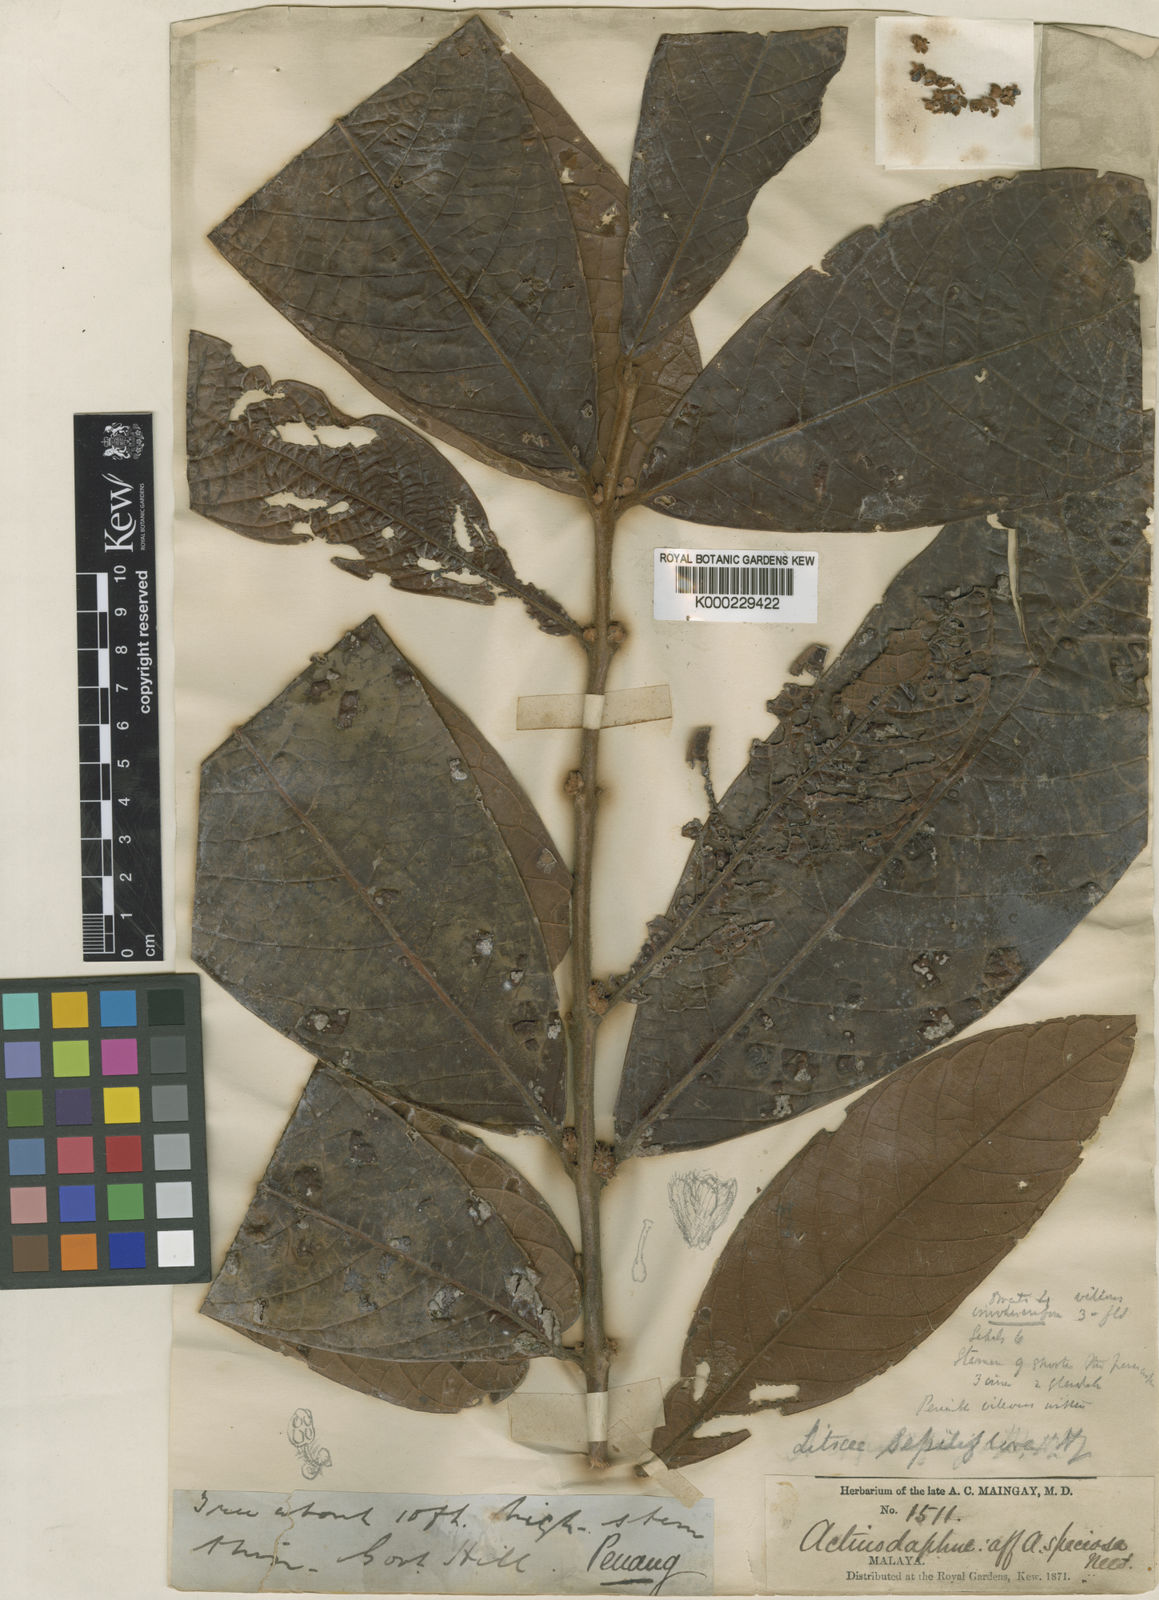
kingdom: Plantae
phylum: Tracheophyta
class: Magnoliopsida
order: Laurales
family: Lauraceae
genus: Litsea
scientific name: Litsea sessiliflora
